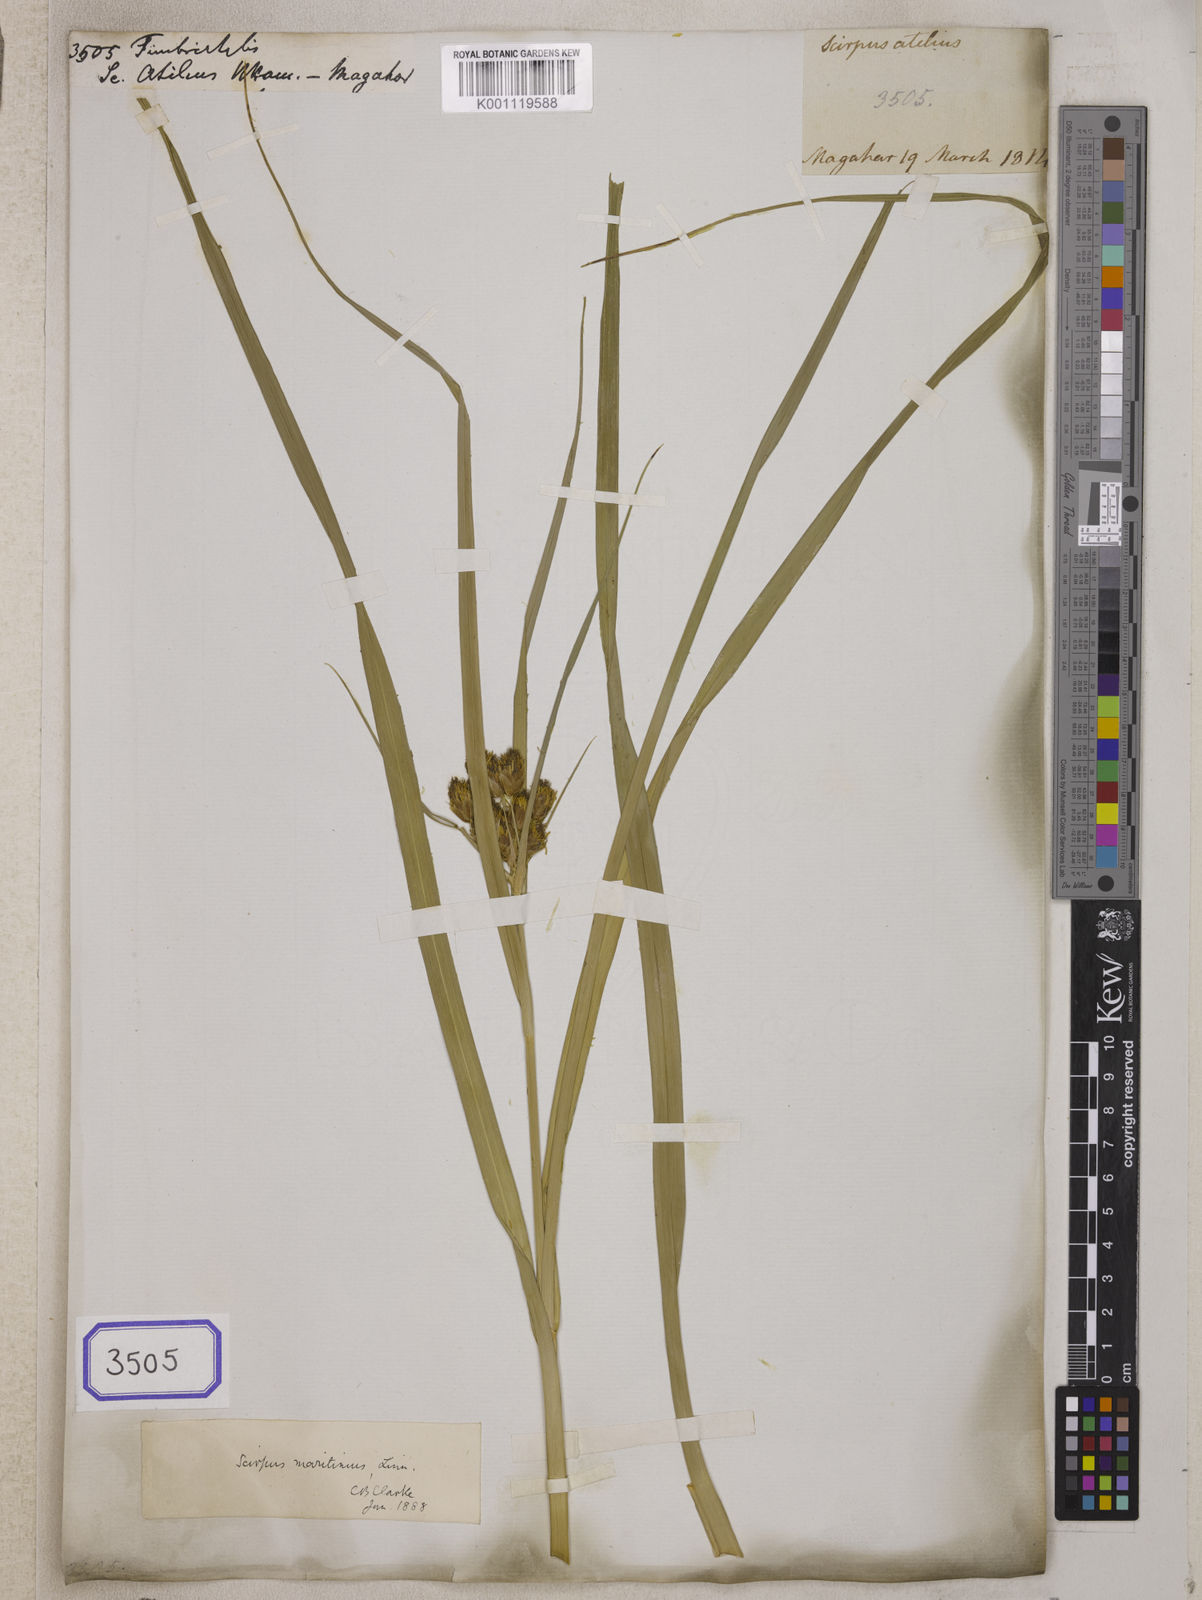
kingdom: Plantae
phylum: Tracheophyta
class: Liliopsida
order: Poales
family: Cyperaceae
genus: Fimbristylis
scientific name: Fimbristylis
